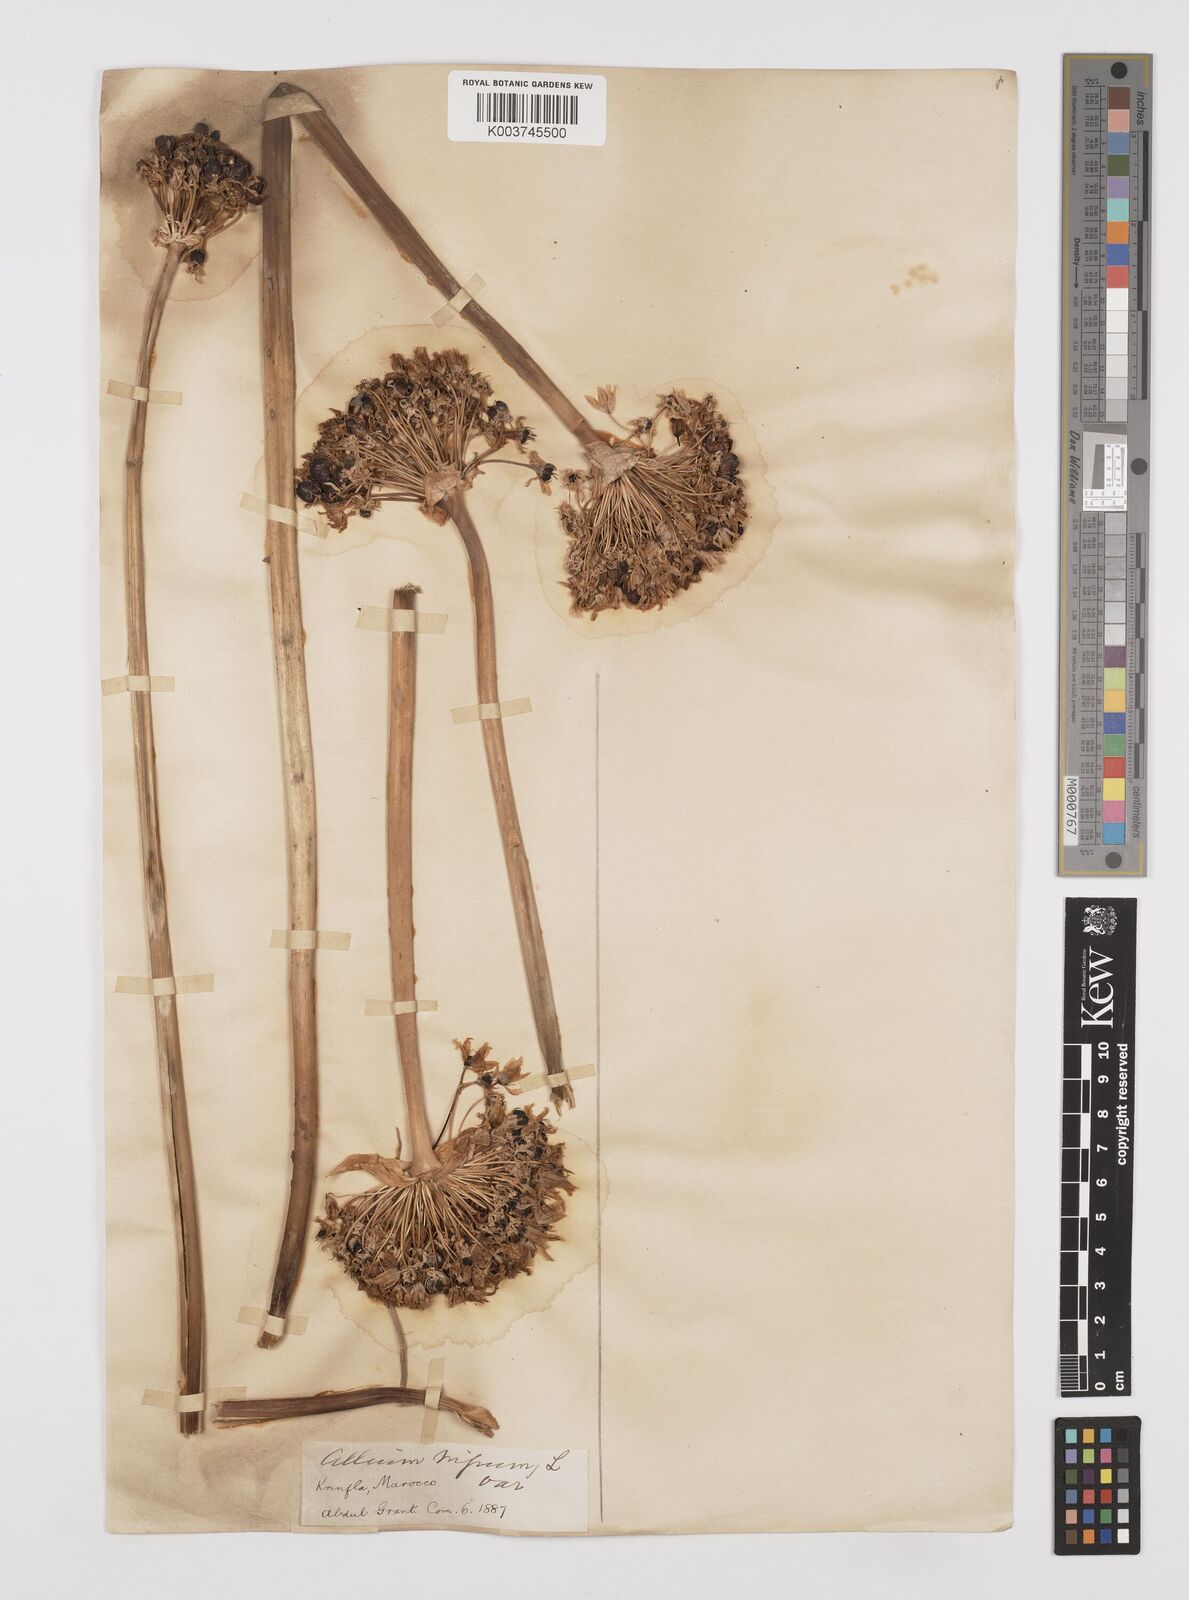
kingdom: Plantae
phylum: Tracheophyta
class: Liliopsida
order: Asparagales
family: Amaryllidaceae
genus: Allium
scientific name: Allium nigrum
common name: Black garlic
